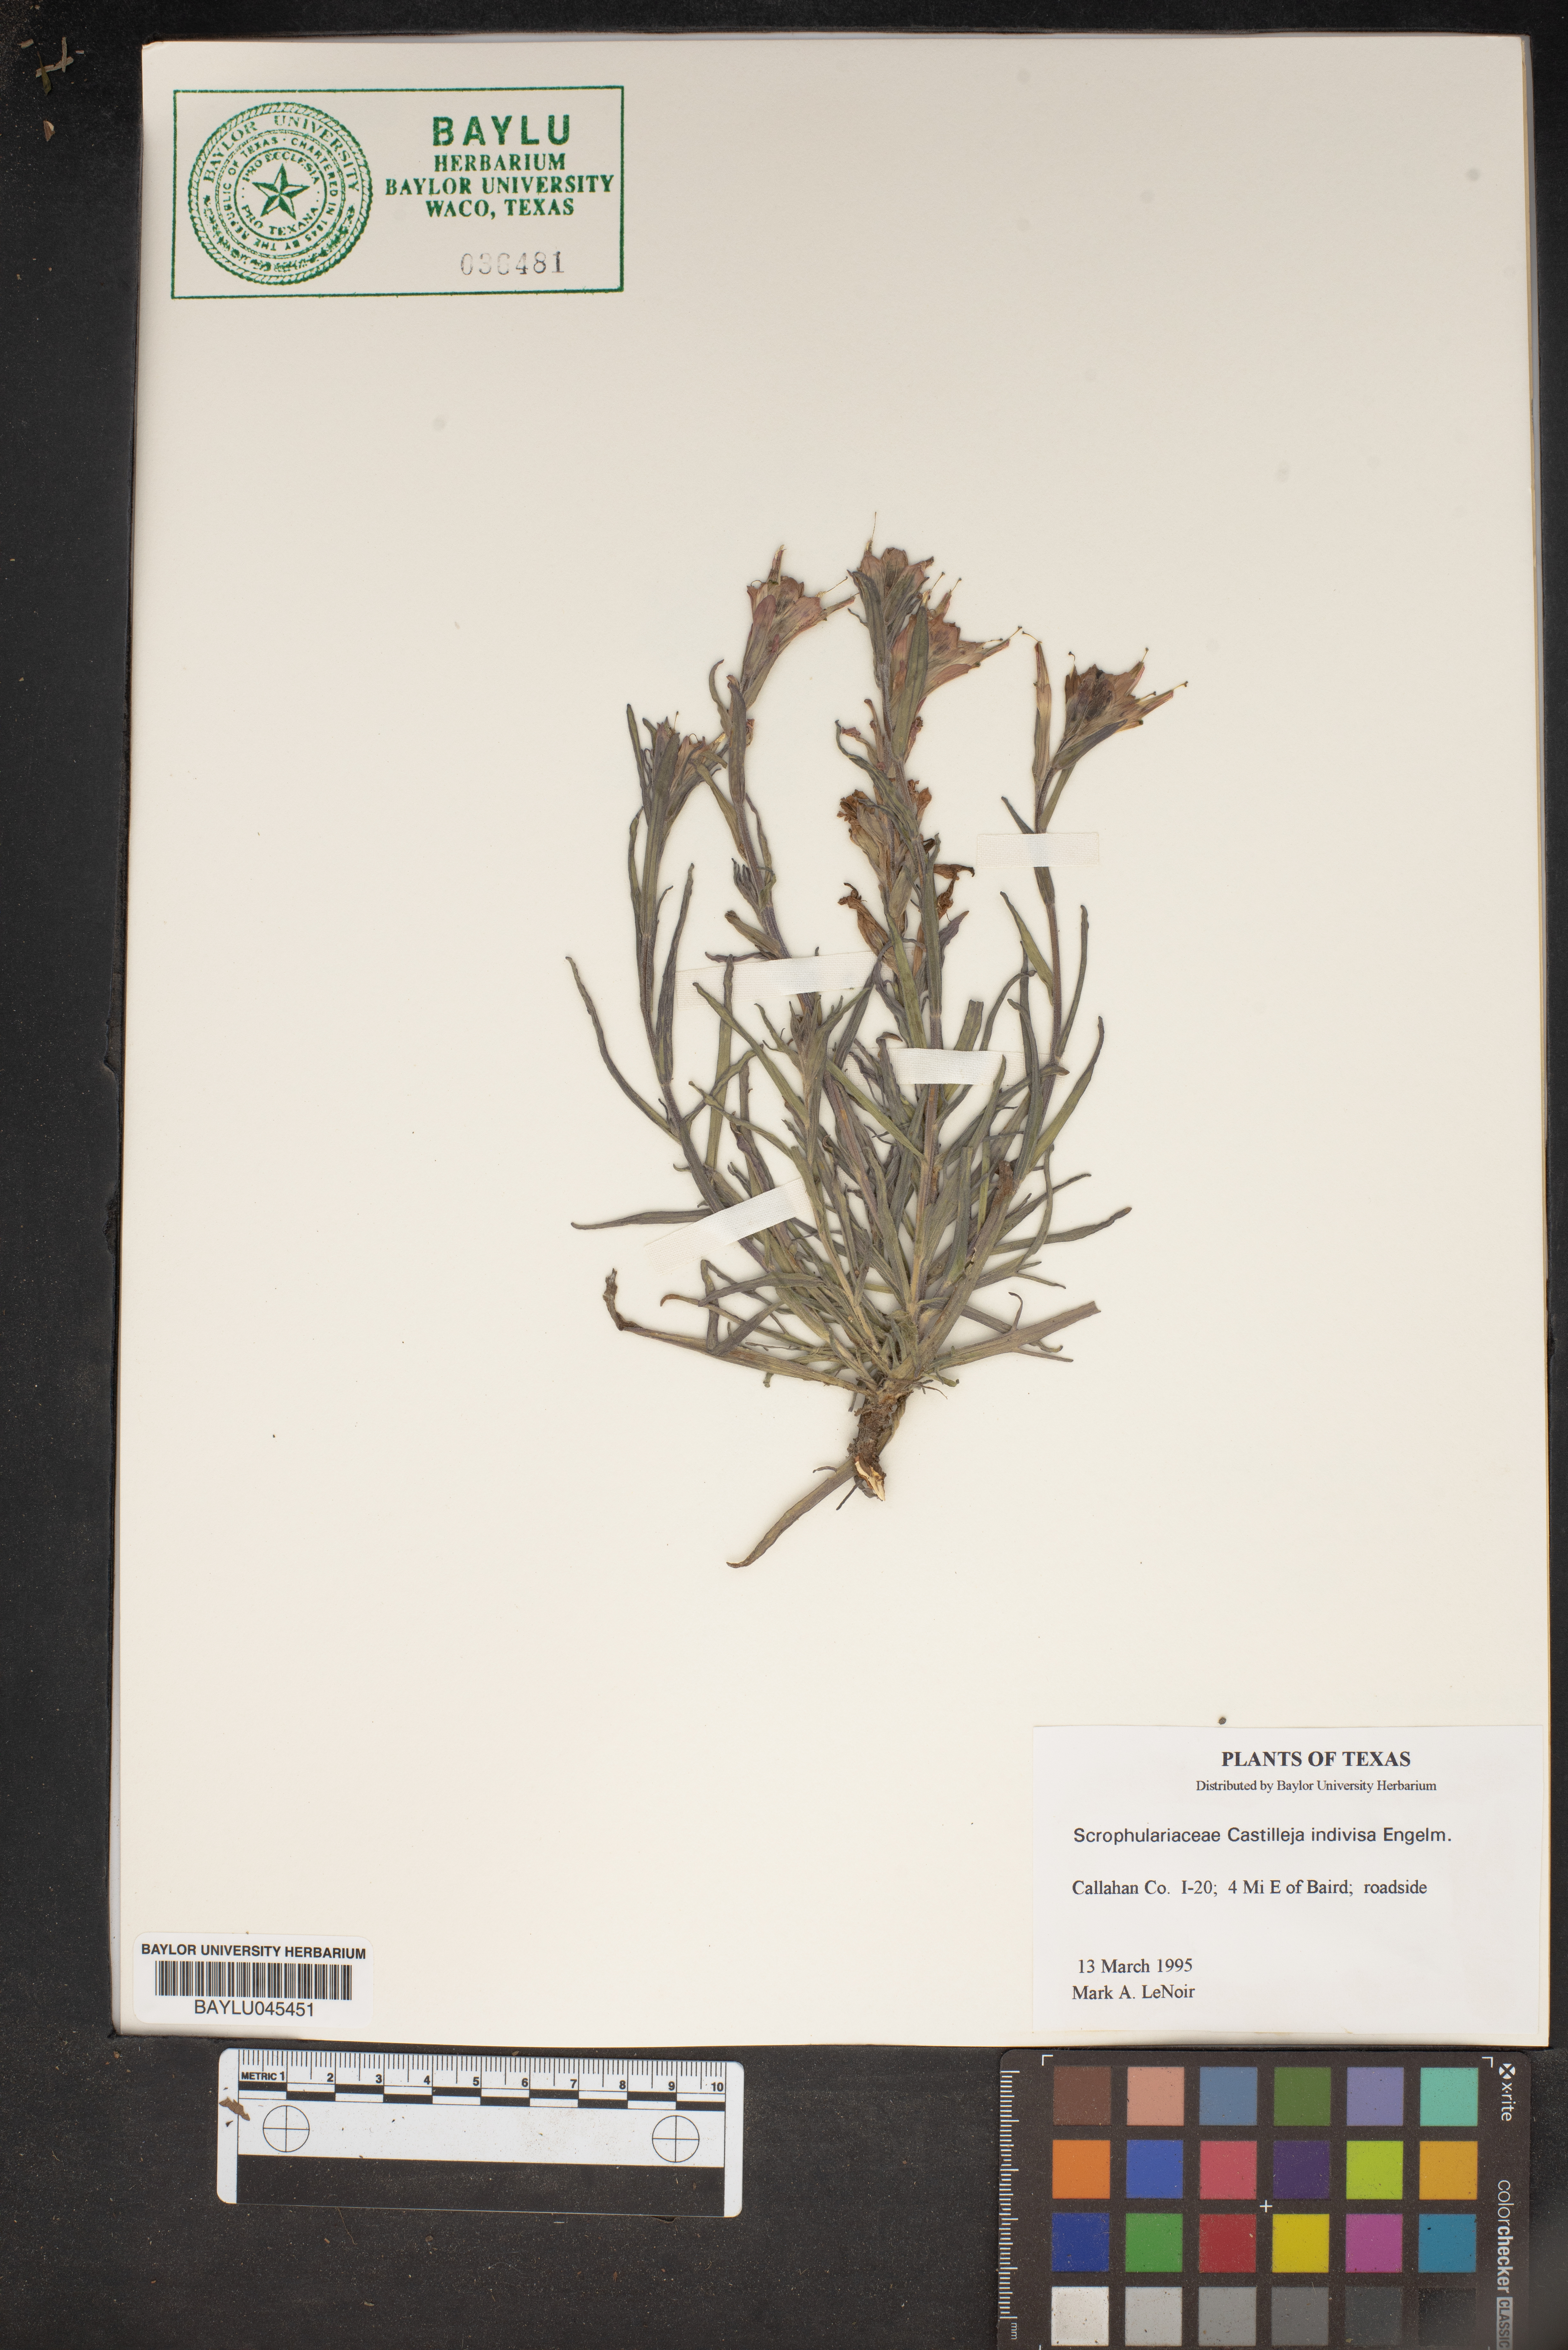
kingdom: Plantae
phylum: Tracheophyta
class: Magnoliopsida
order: Lamiales
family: Orobanchaceae
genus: Castilleja
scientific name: Castilleja indivisa
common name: Texas paintbrush
